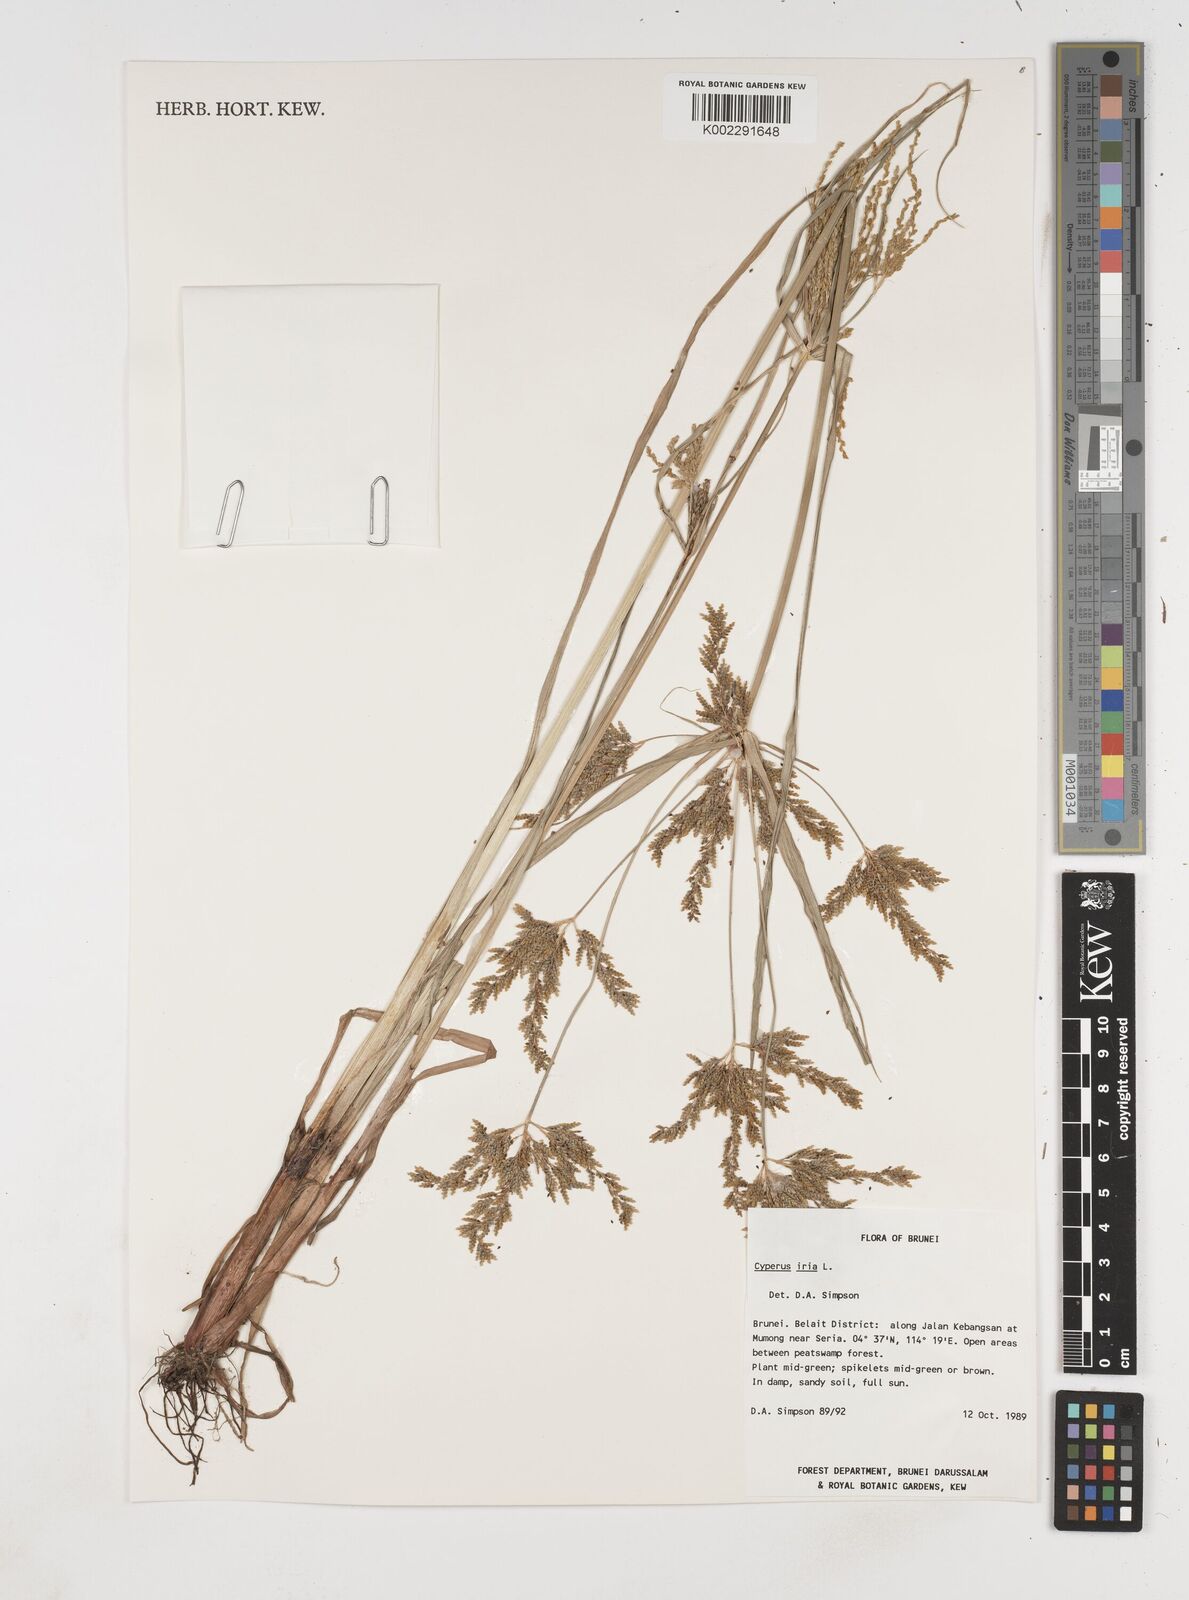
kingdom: Plantae
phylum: Tracheophyta
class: Liliopsida
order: Poales
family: Cyperaceae
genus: Cyperus
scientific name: Cyperus iria
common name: Ricefield flatsedge
